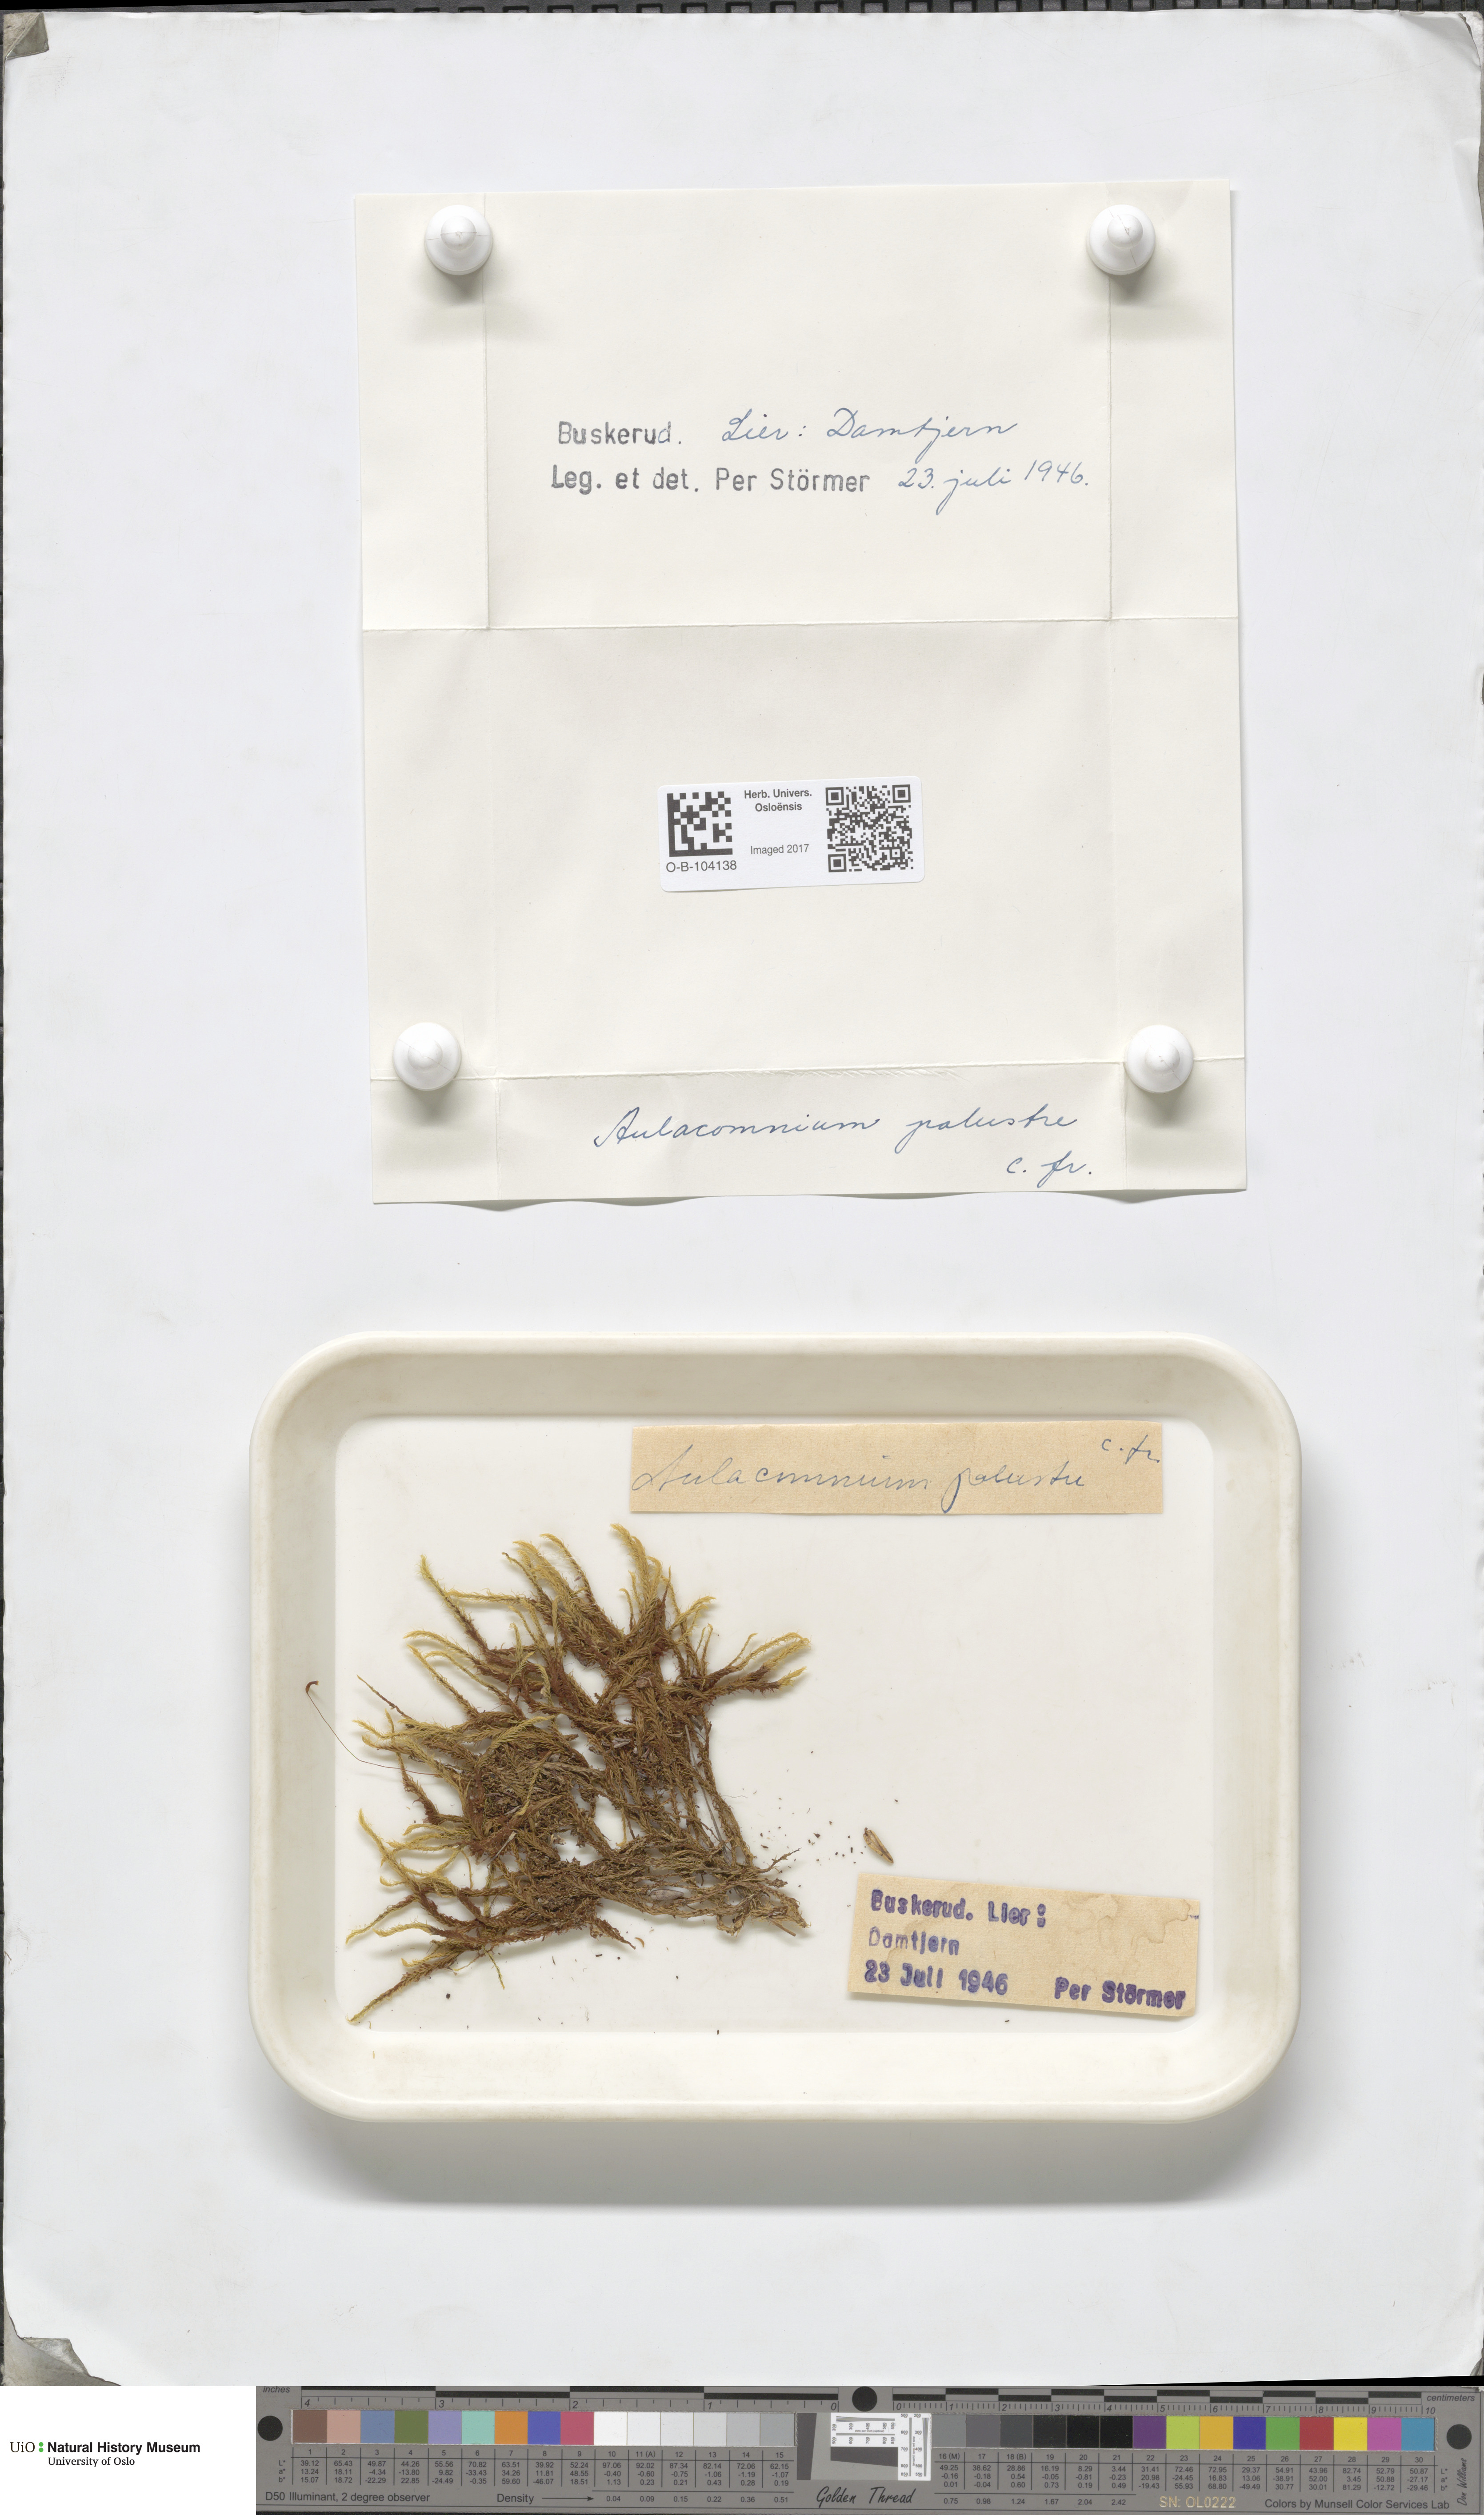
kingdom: Plantae
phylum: Bryophyta
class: Bryopsida
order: Aulacomniales
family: Aulacomniaceae
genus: Aulacomnium
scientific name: Aulacomnium palustre
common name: Bog groove-moss
